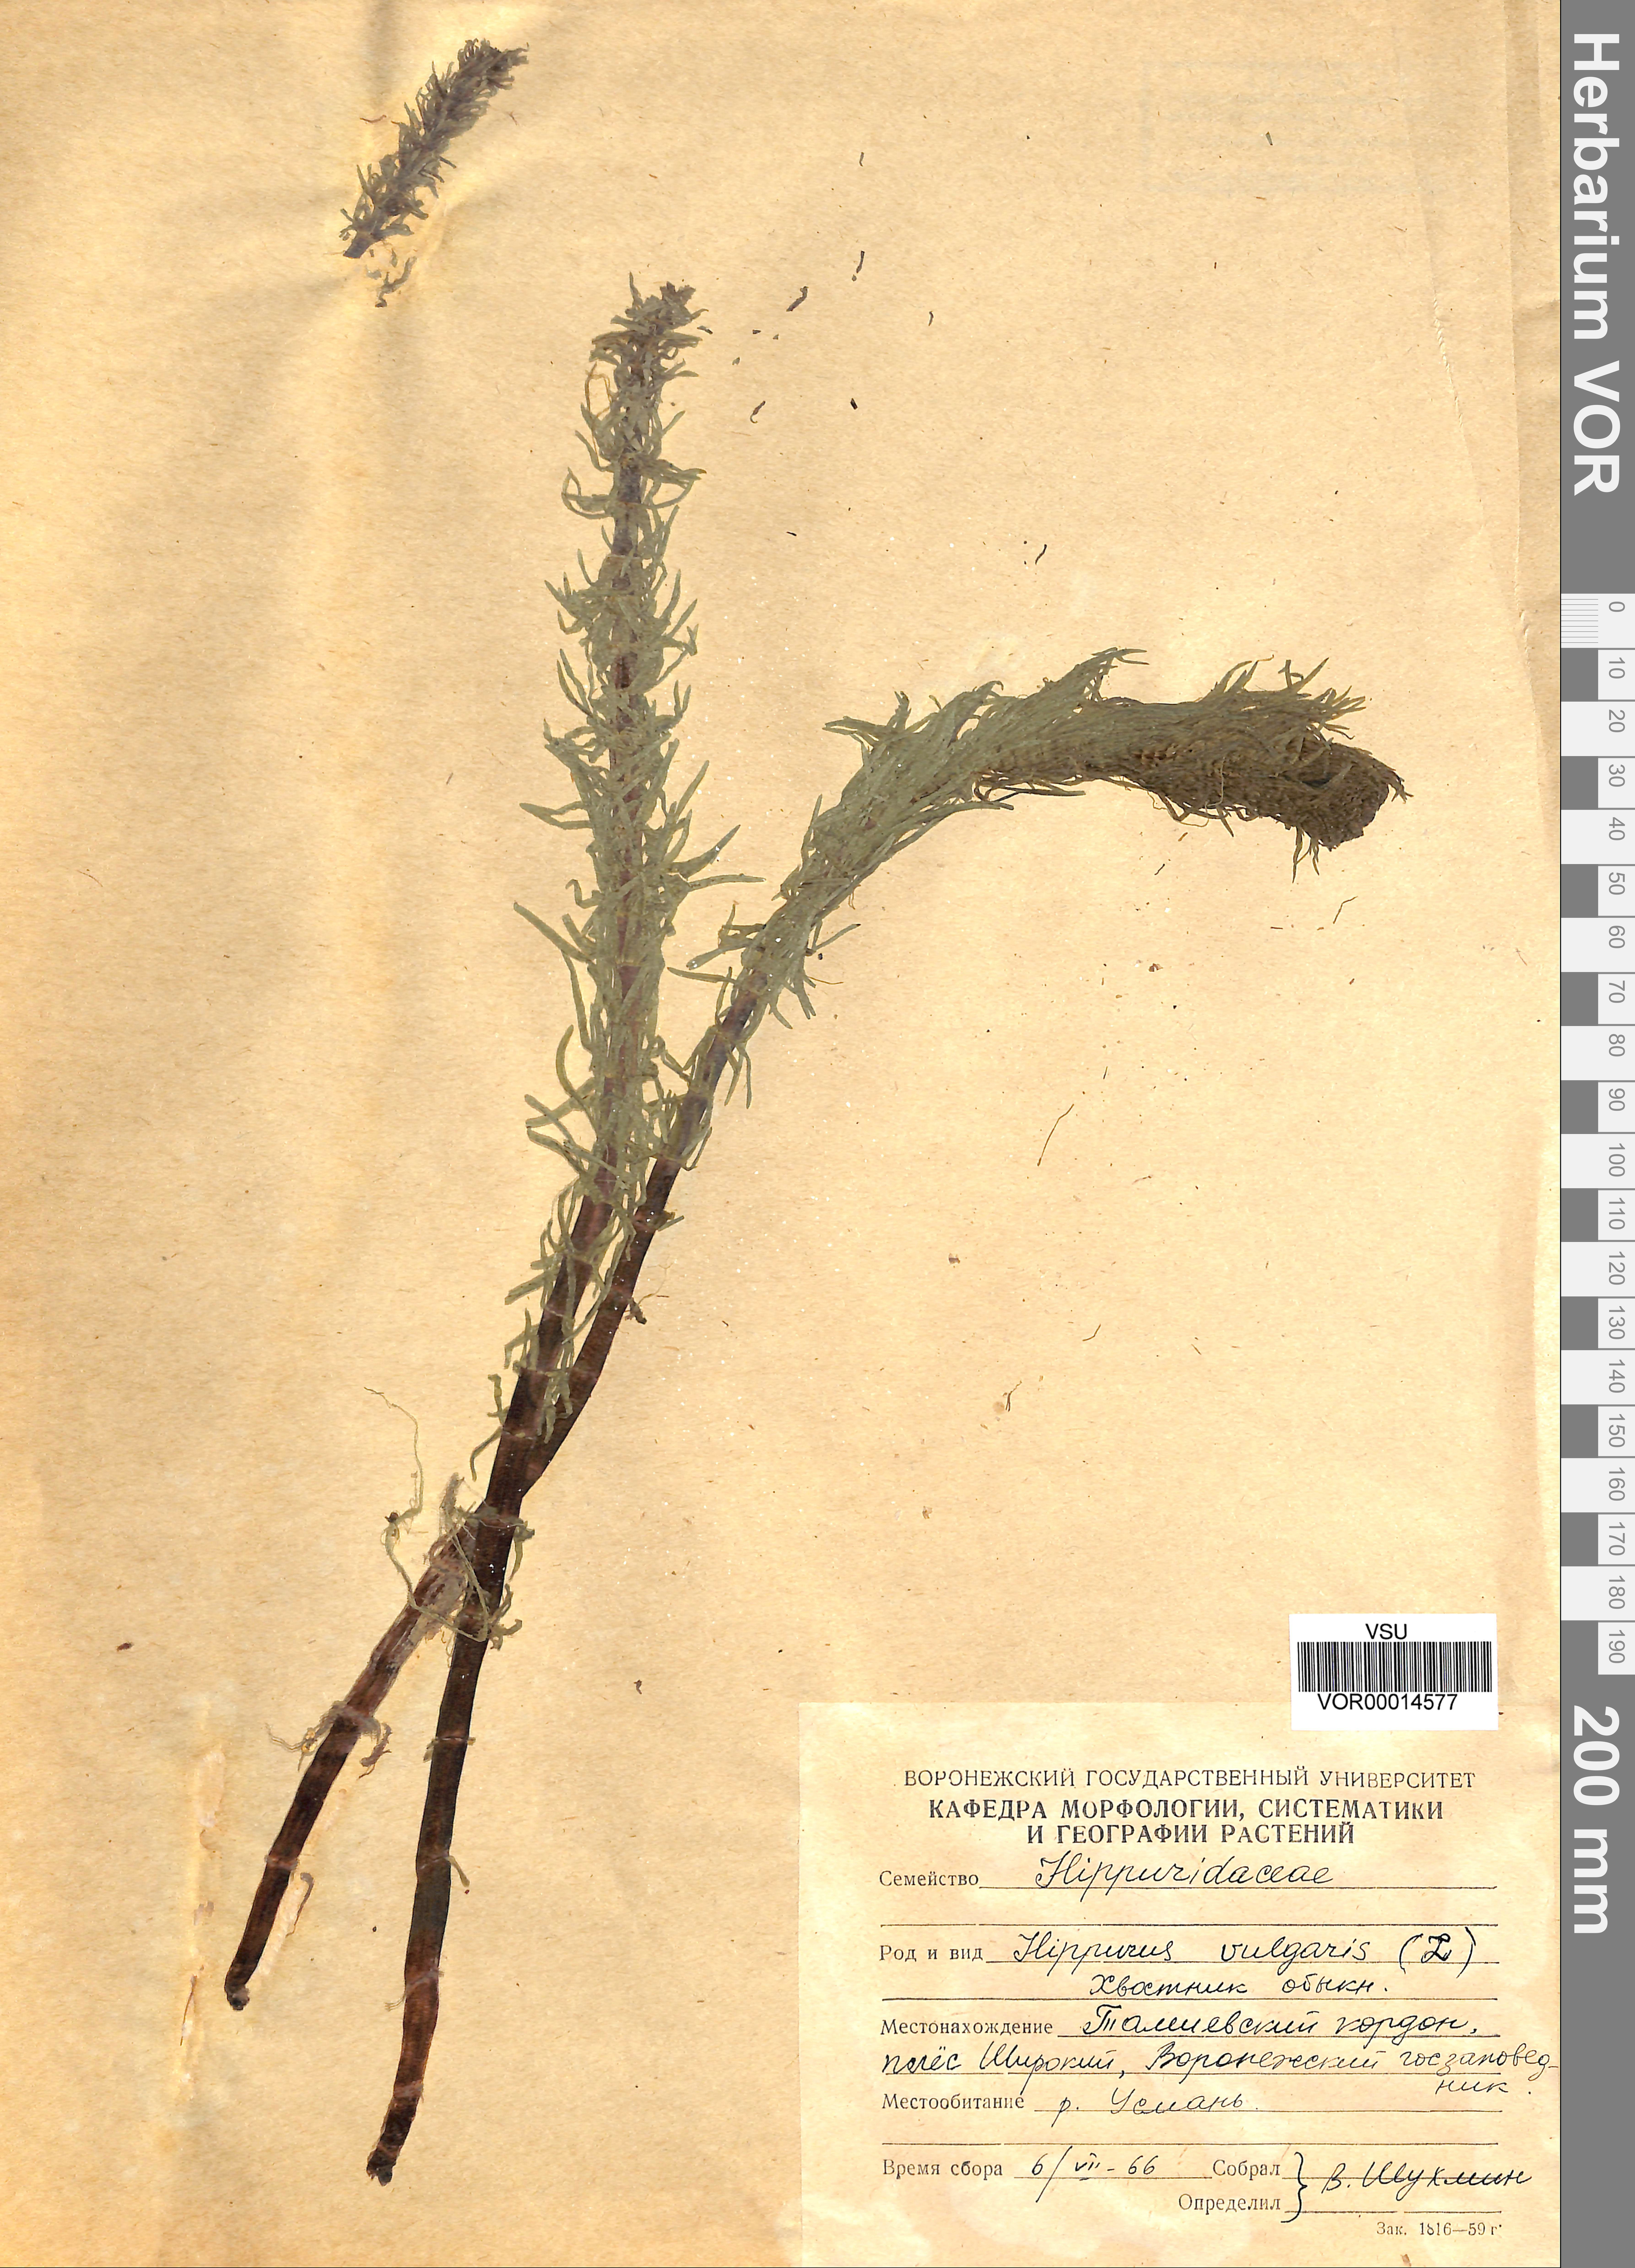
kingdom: Plantae
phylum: Tracheophyta
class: Magnoliopsida
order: Lamiales
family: Plantaginaceae
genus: Hippuris
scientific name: Hippuris vulgaris
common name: Mare's-tail
